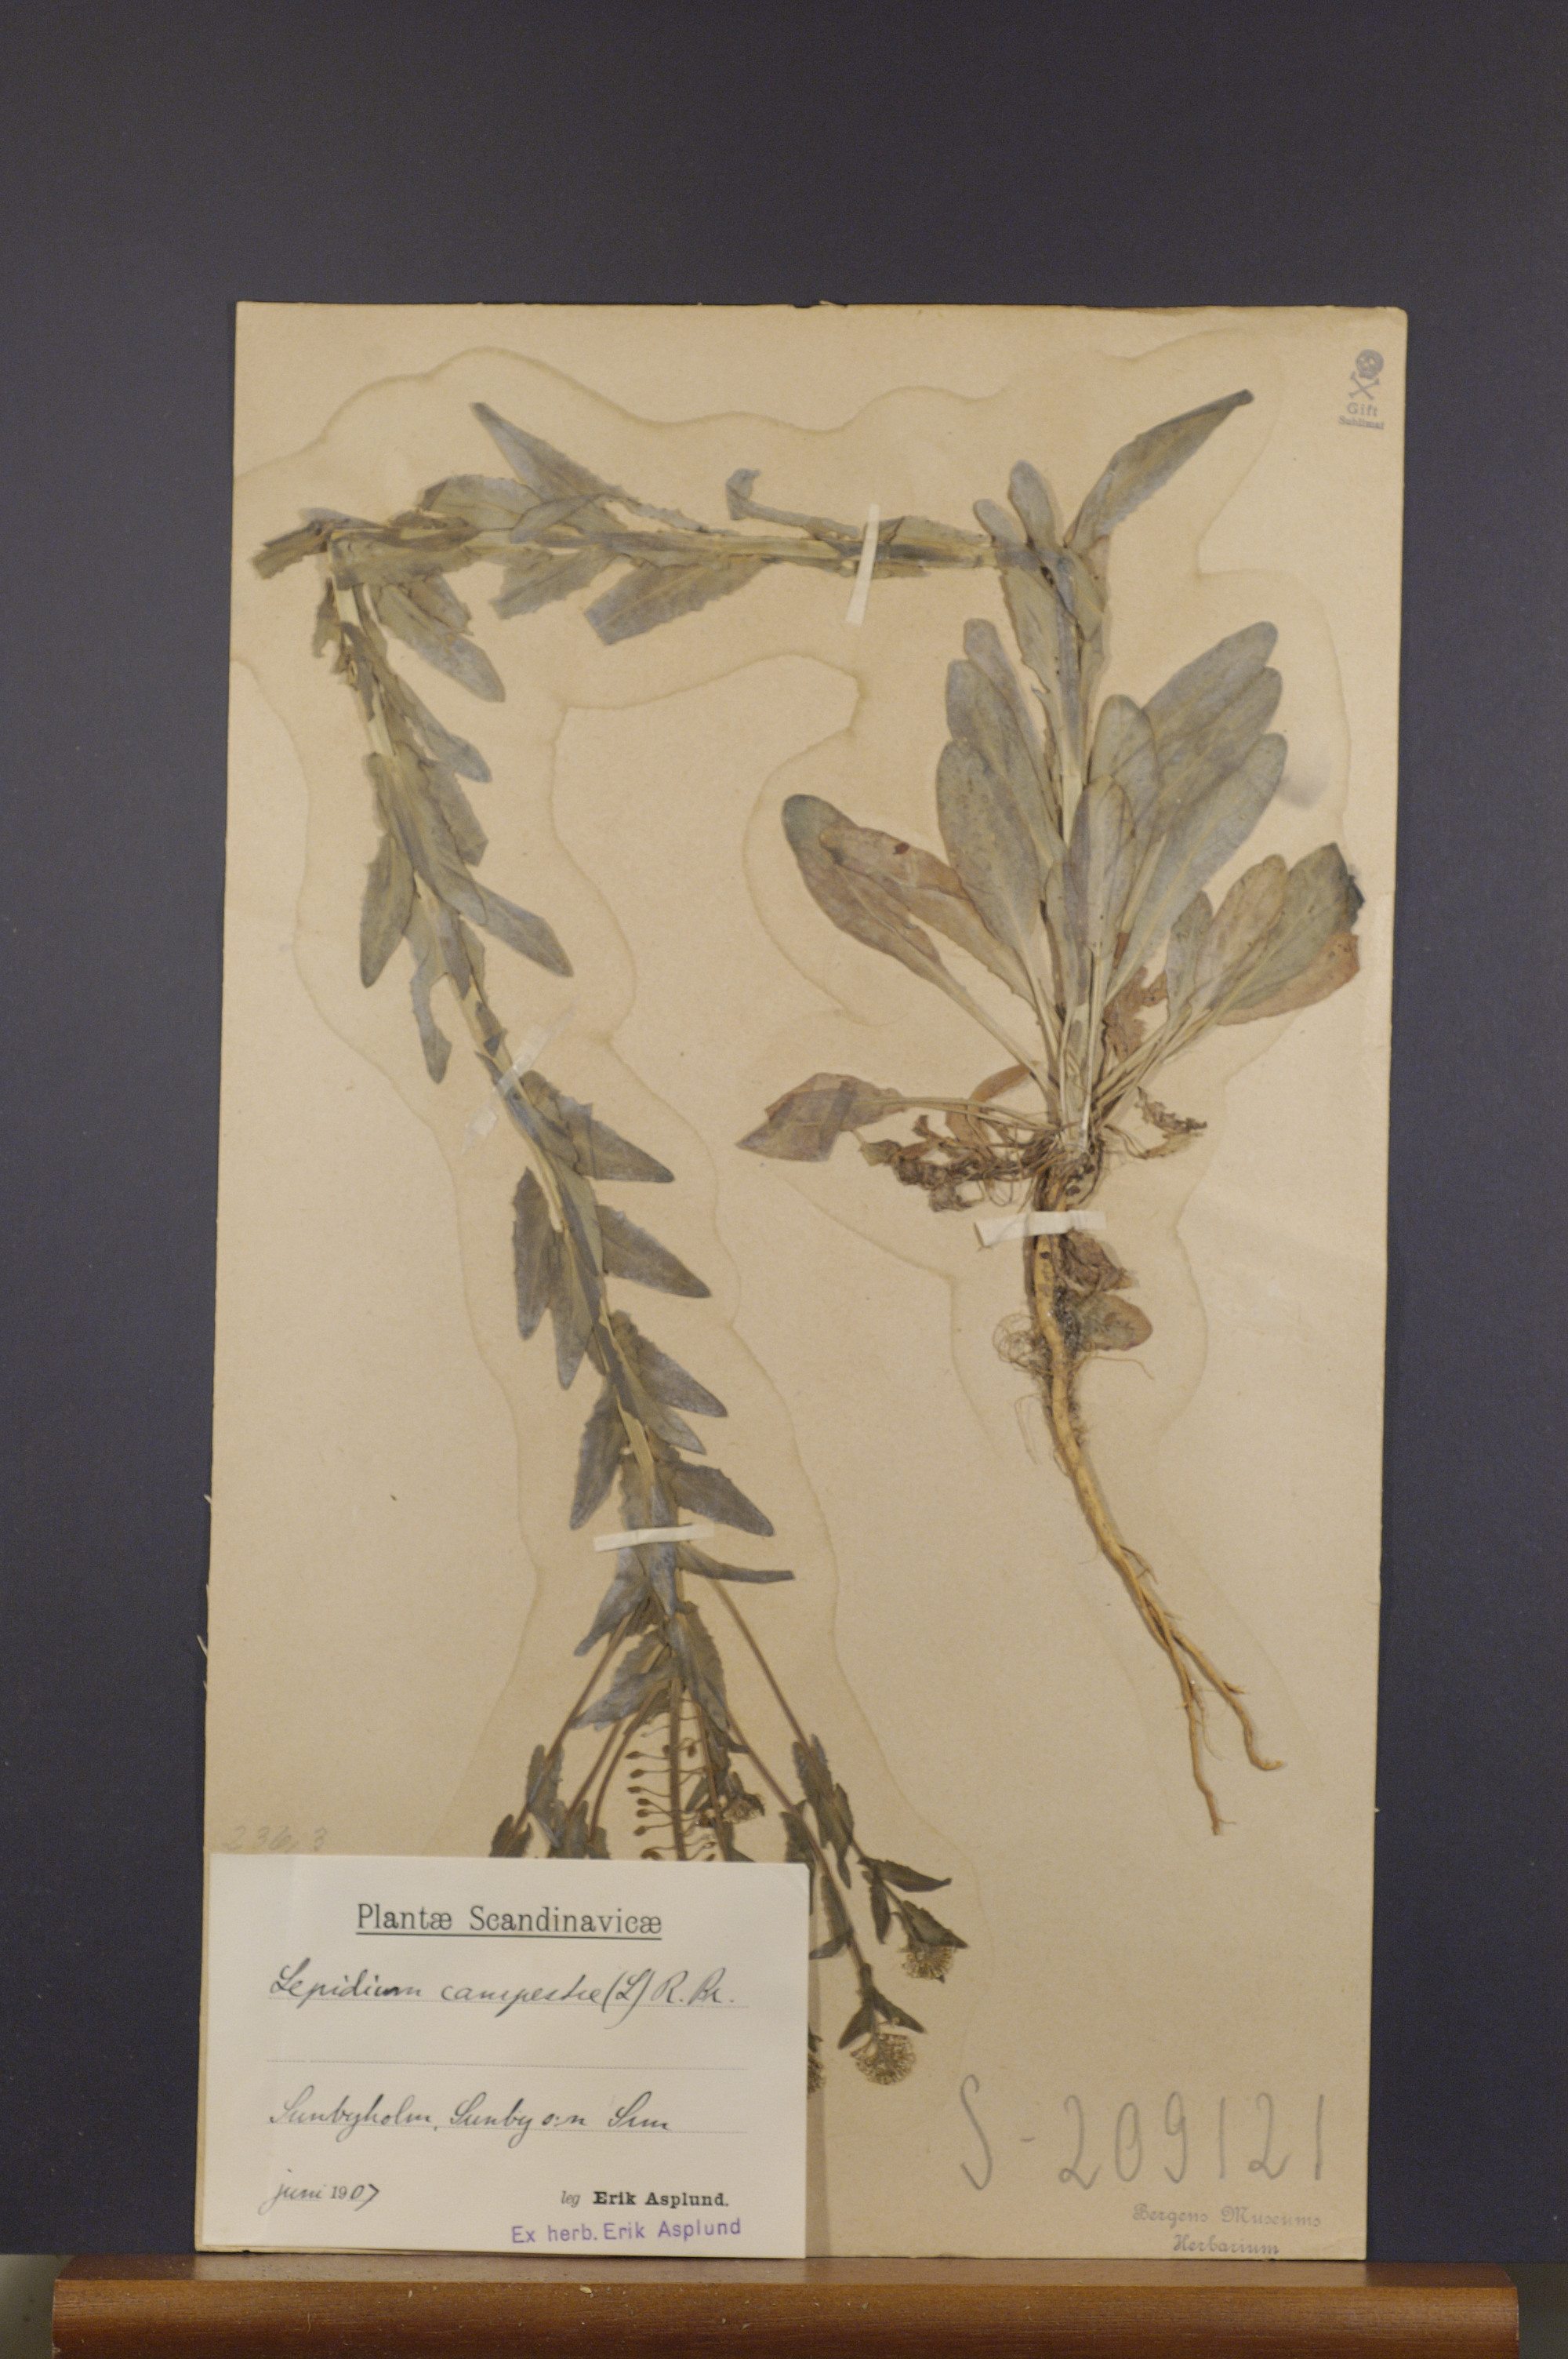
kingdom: Plantae
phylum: Tracheophyta
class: Magnoliopsida
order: Brassicales
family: Brassicaceae
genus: Lepidium
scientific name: Lepidium campestre
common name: Field pepperwort
